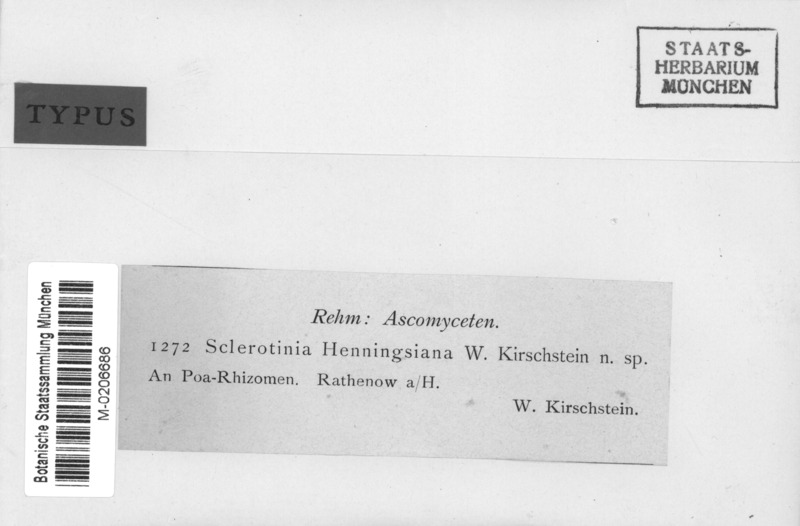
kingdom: Fungi
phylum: Ascomycota
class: Leotiomycetes
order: Helotiales
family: Sclerotiniaceae
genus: Sclerotinia
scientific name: Sclerotinia sclerotiorum
